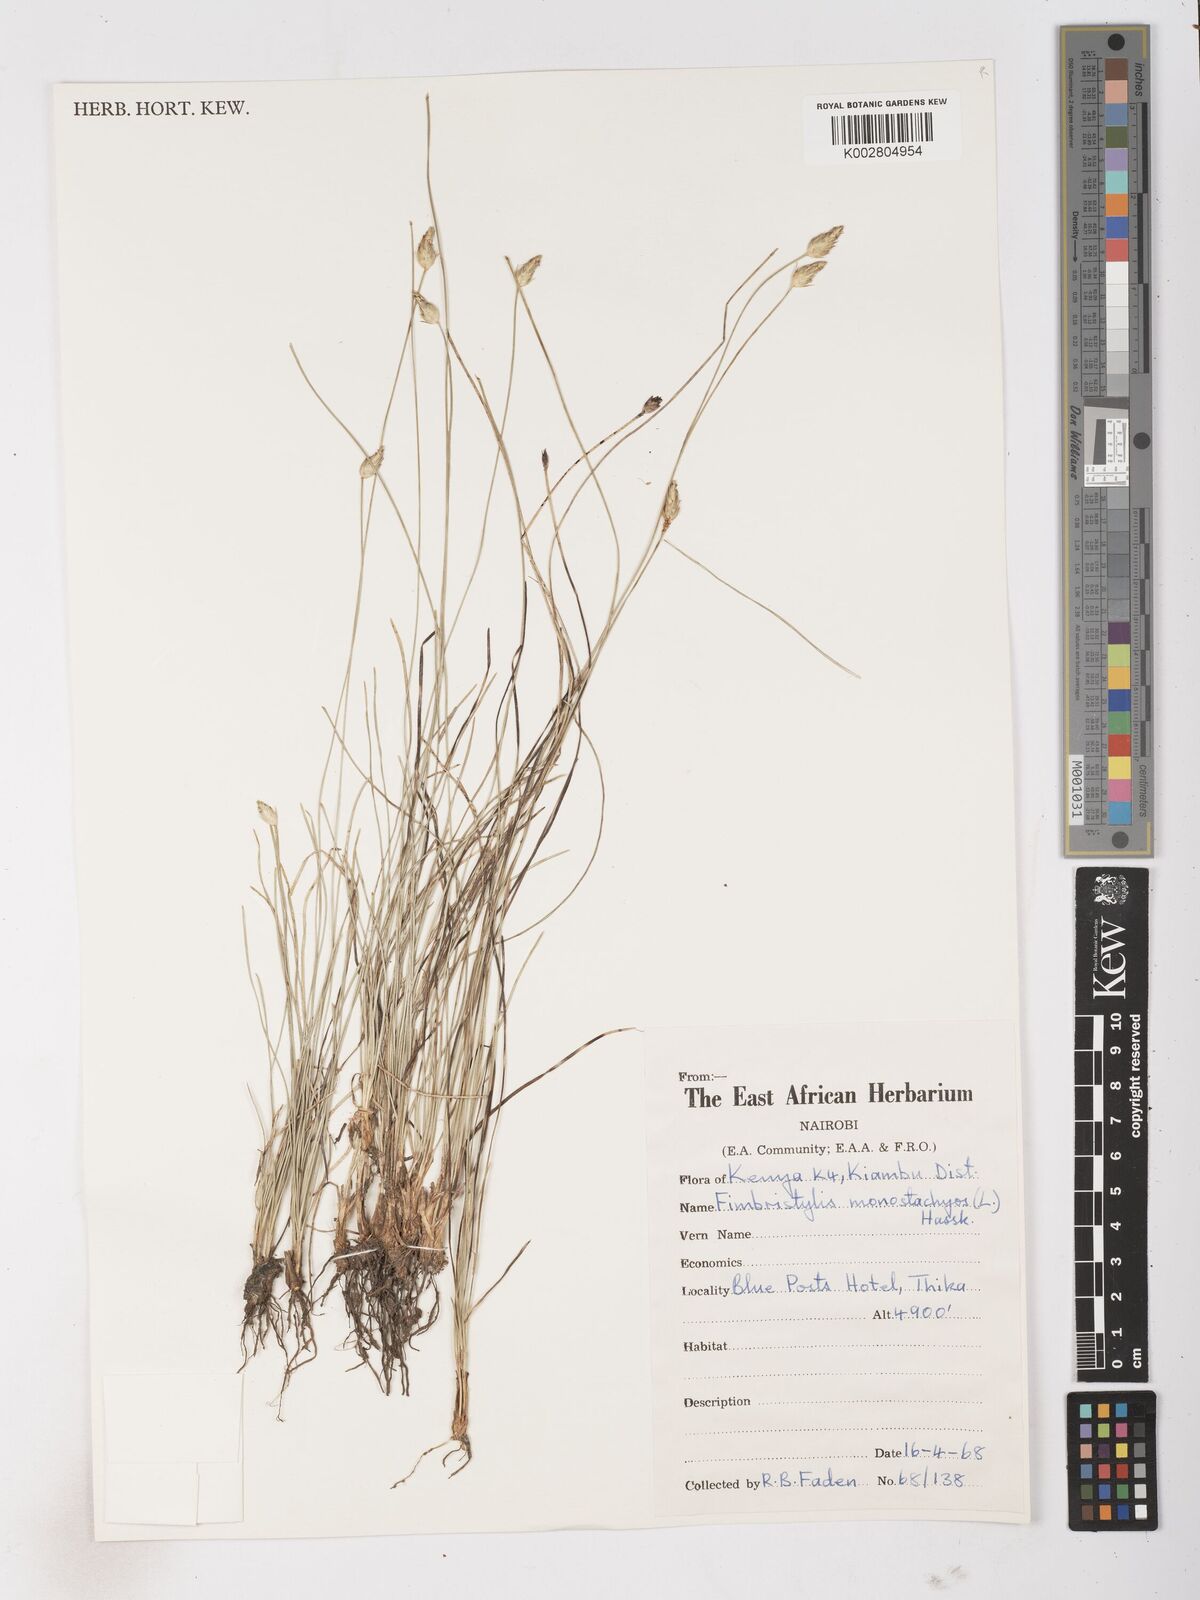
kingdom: Plantae
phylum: Tracheophyta
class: Liliopsida
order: Poales
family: Cyperaceae
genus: Abildgaardia
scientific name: Abildgaardia ovata
